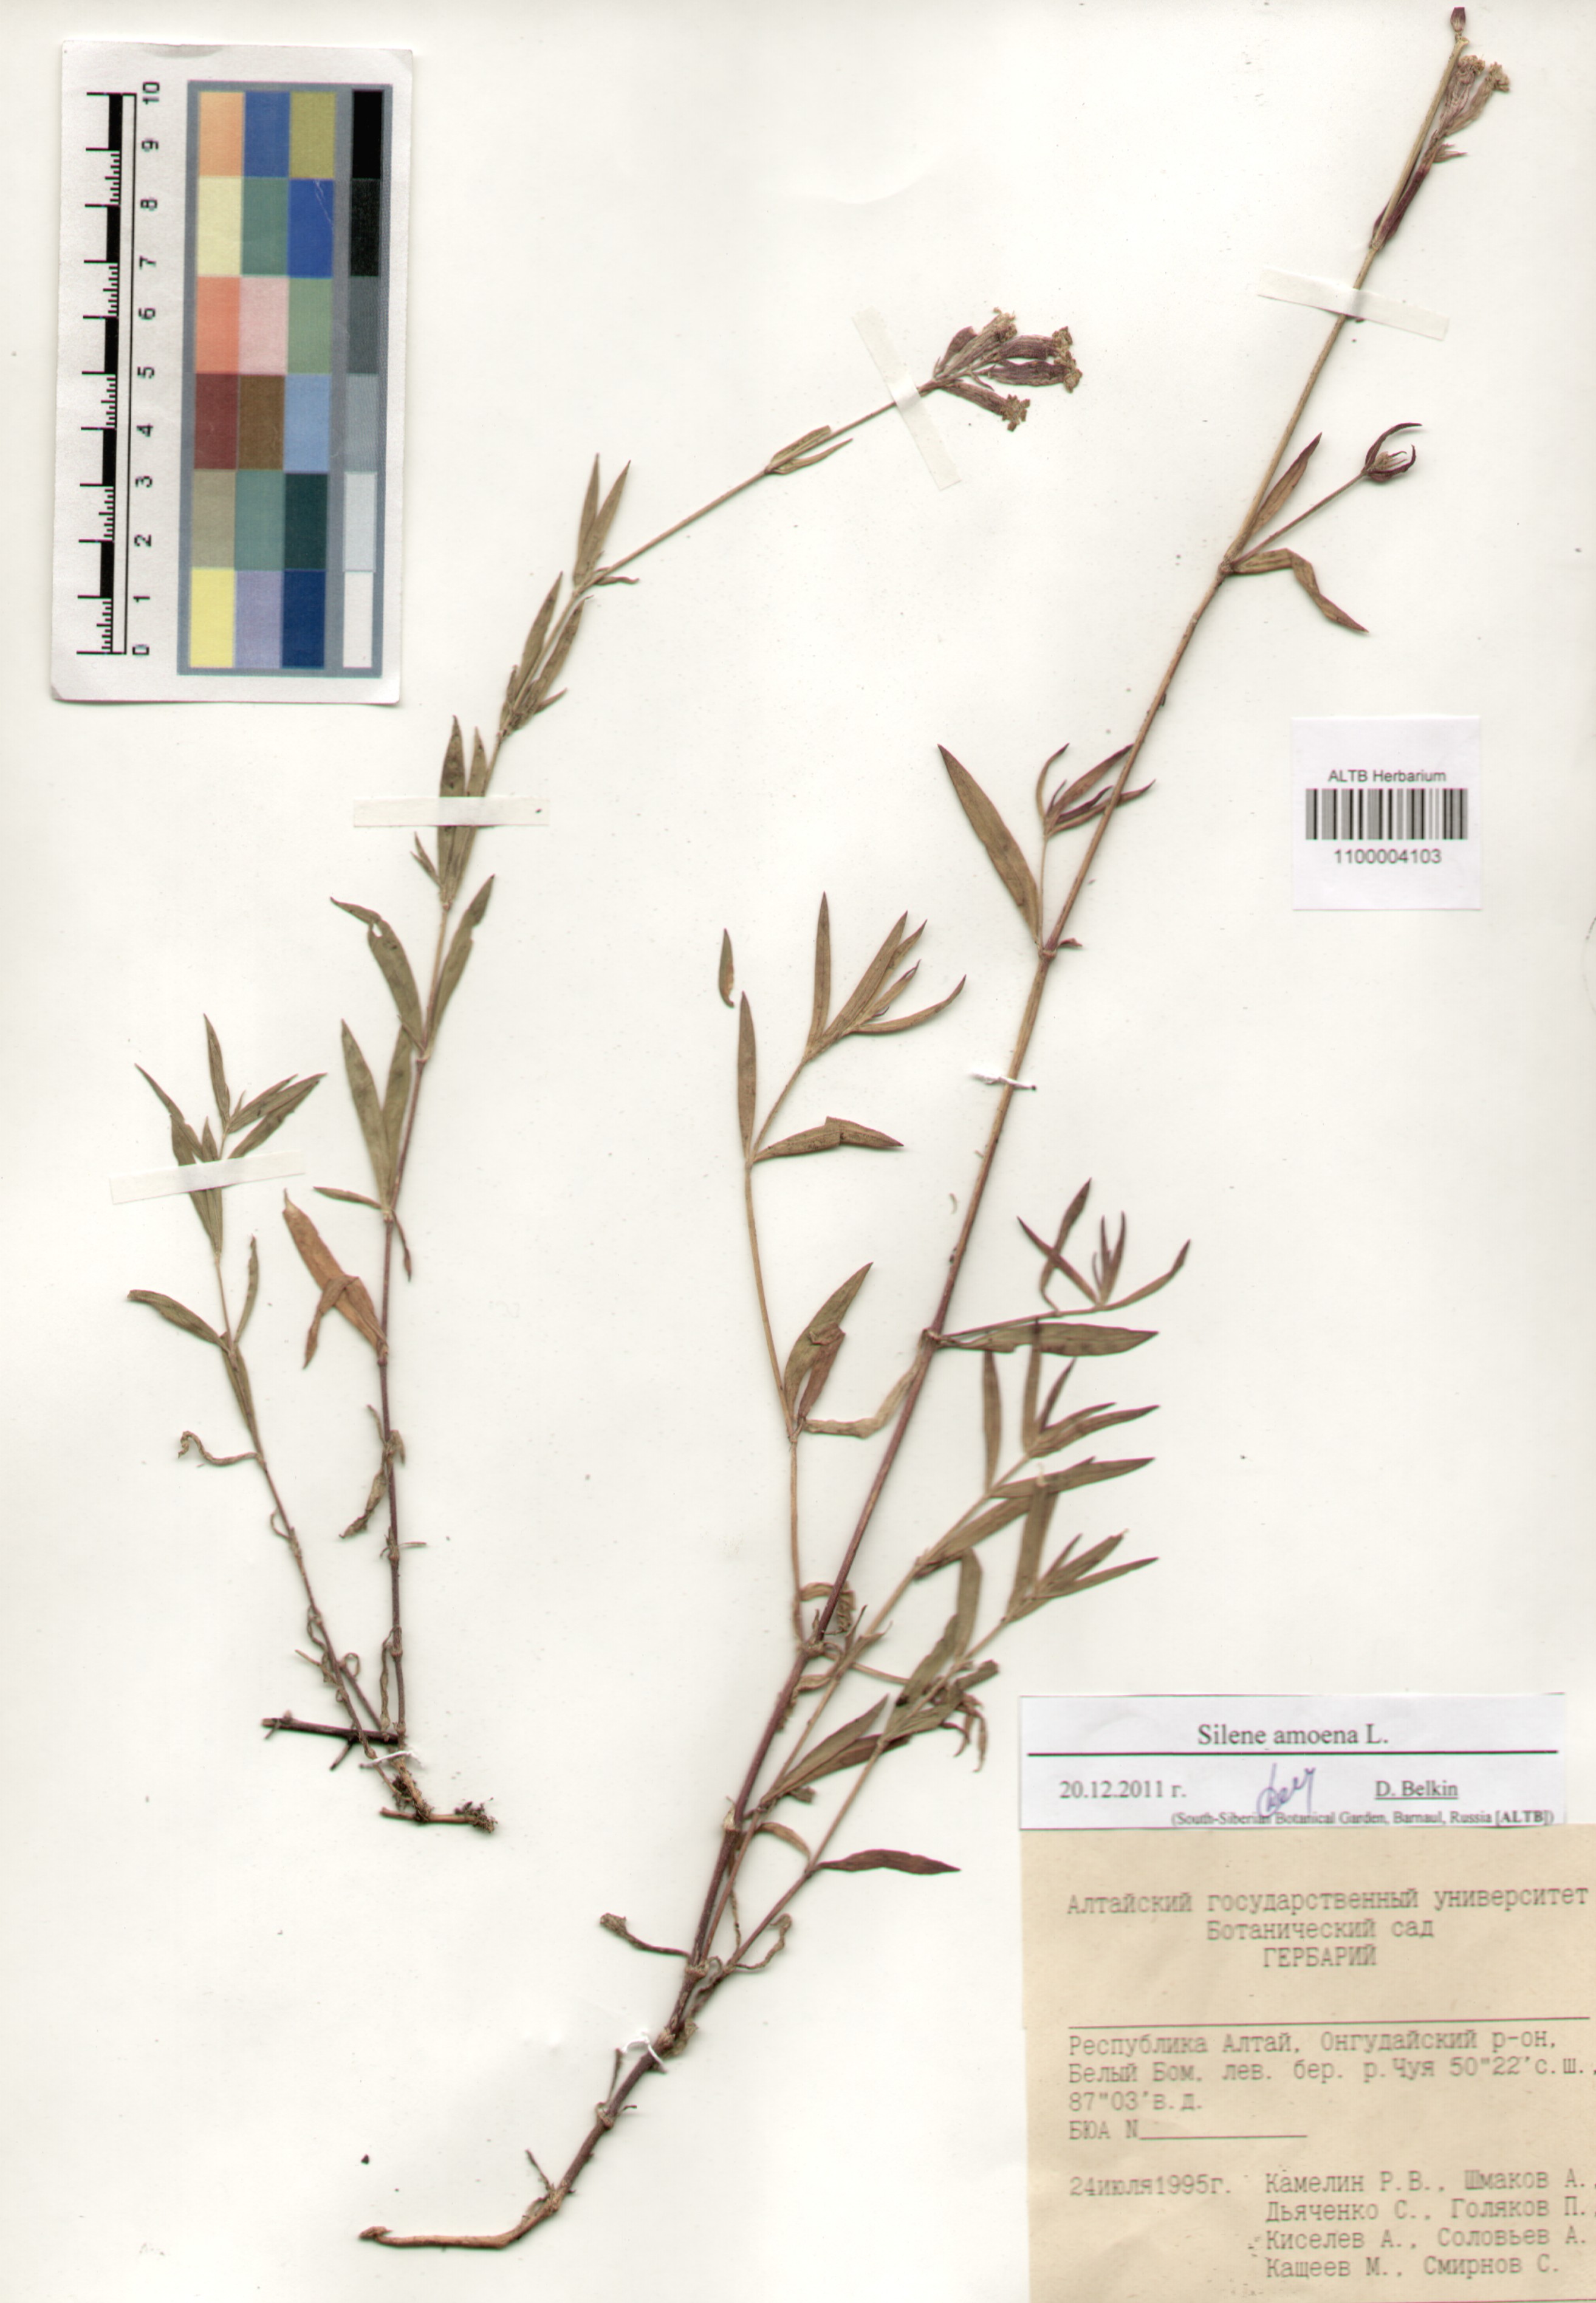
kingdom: Plantae
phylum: Tracheophyta
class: Magnoliopsida
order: Caryophyllales
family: Caryophyllaceae
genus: Silene
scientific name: Silene amoena
